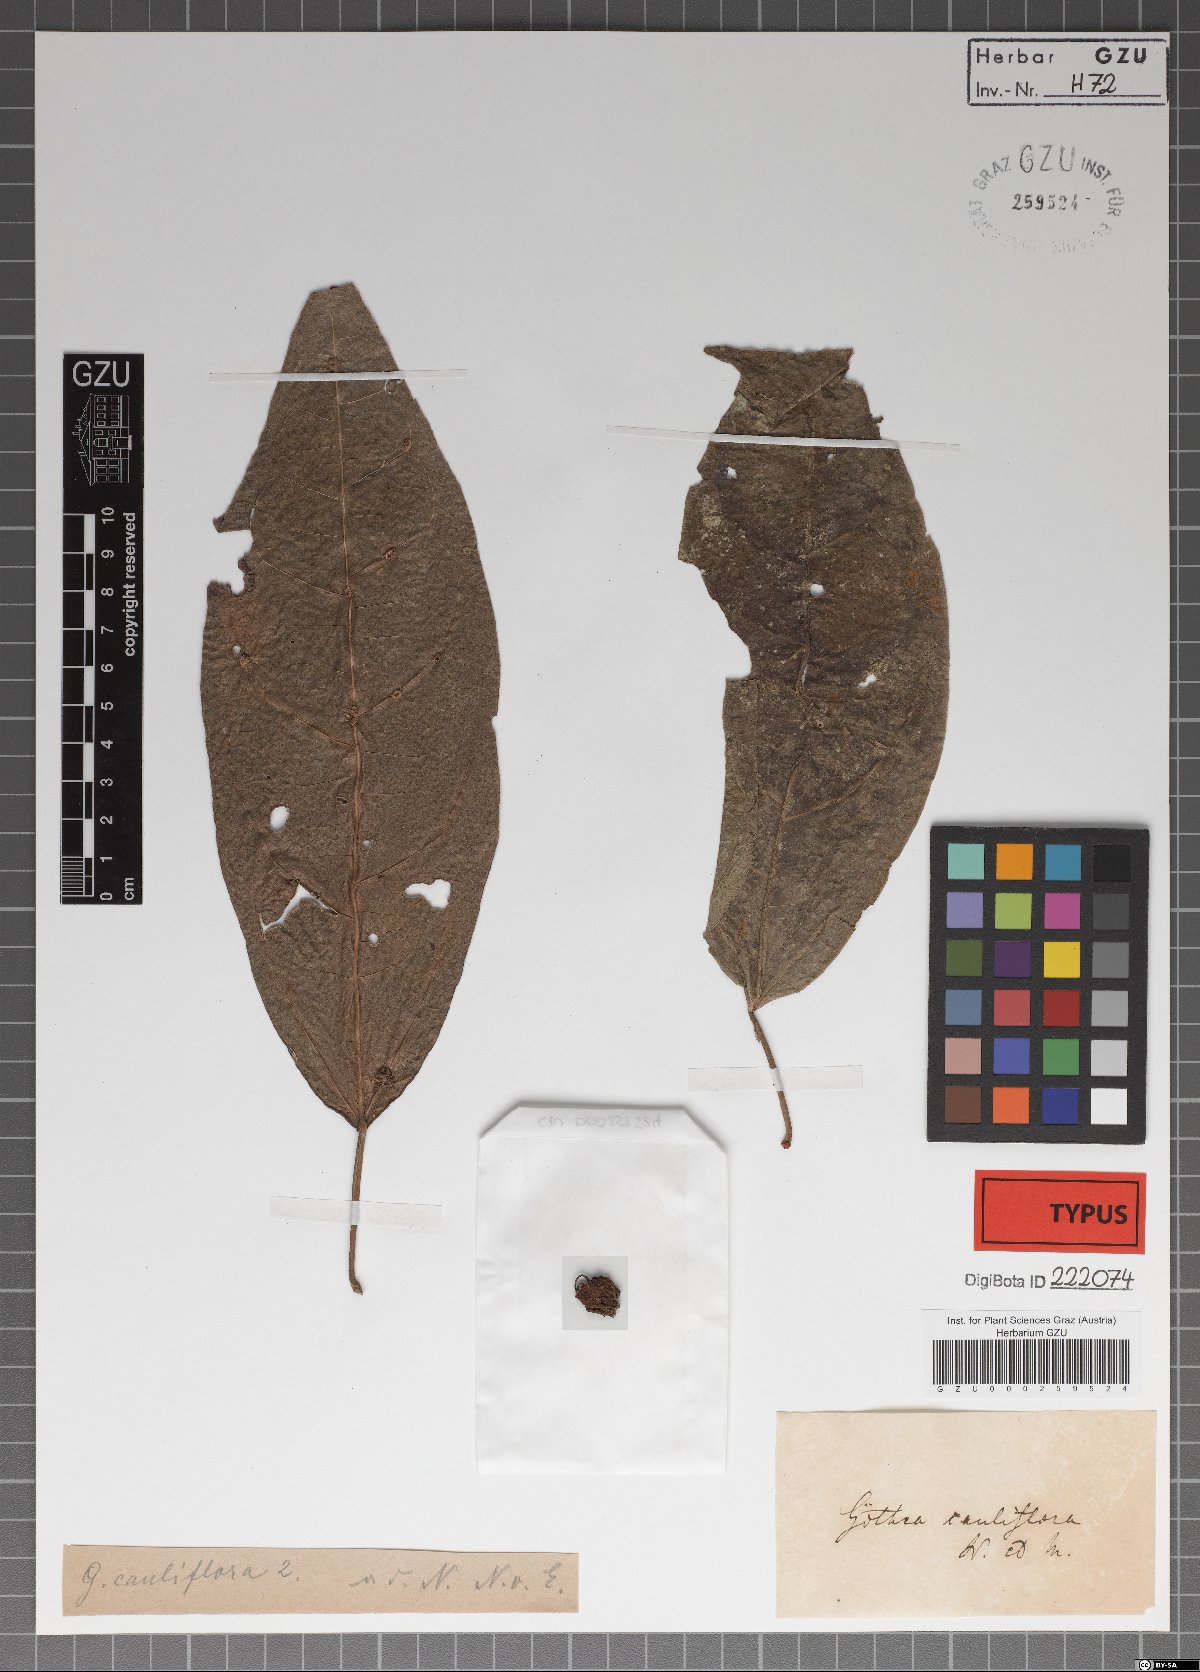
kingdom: Plantae
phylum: Tracheophyta
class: Magnoliopsida
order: Malvales
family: Malvaceae
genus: Pavonia
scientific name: Pavonia cauliflora
